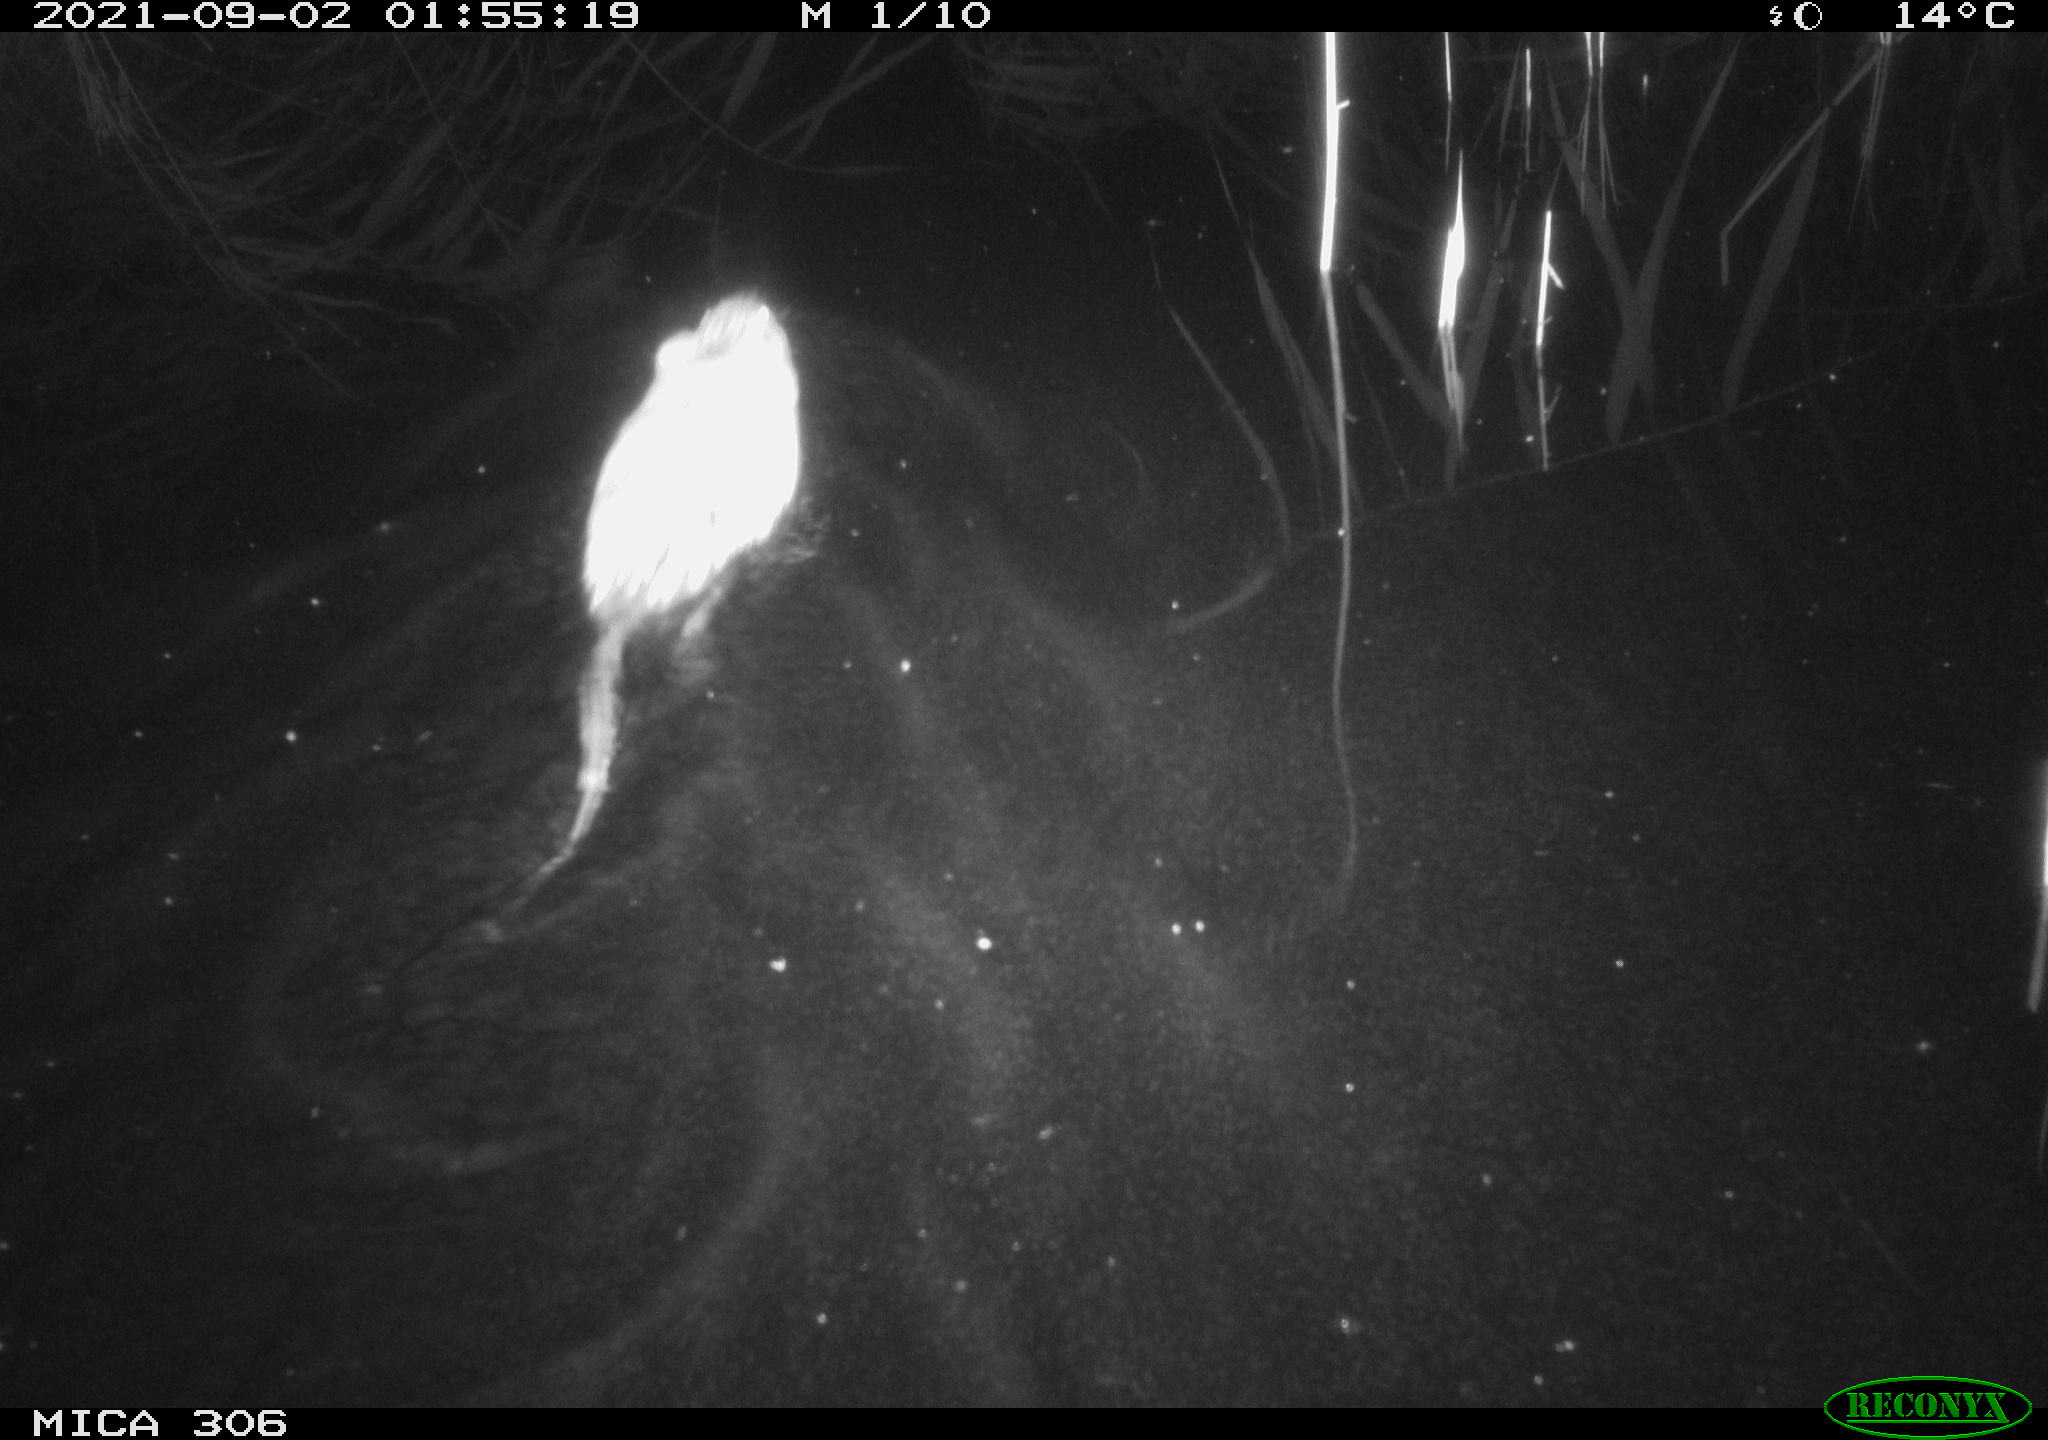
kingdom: Animalia
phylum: Chordata
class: Mammalia
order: Rodentia
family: Cricetidae
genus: Ondatra
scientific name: Ondatra zibethicus
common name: Muskrat
